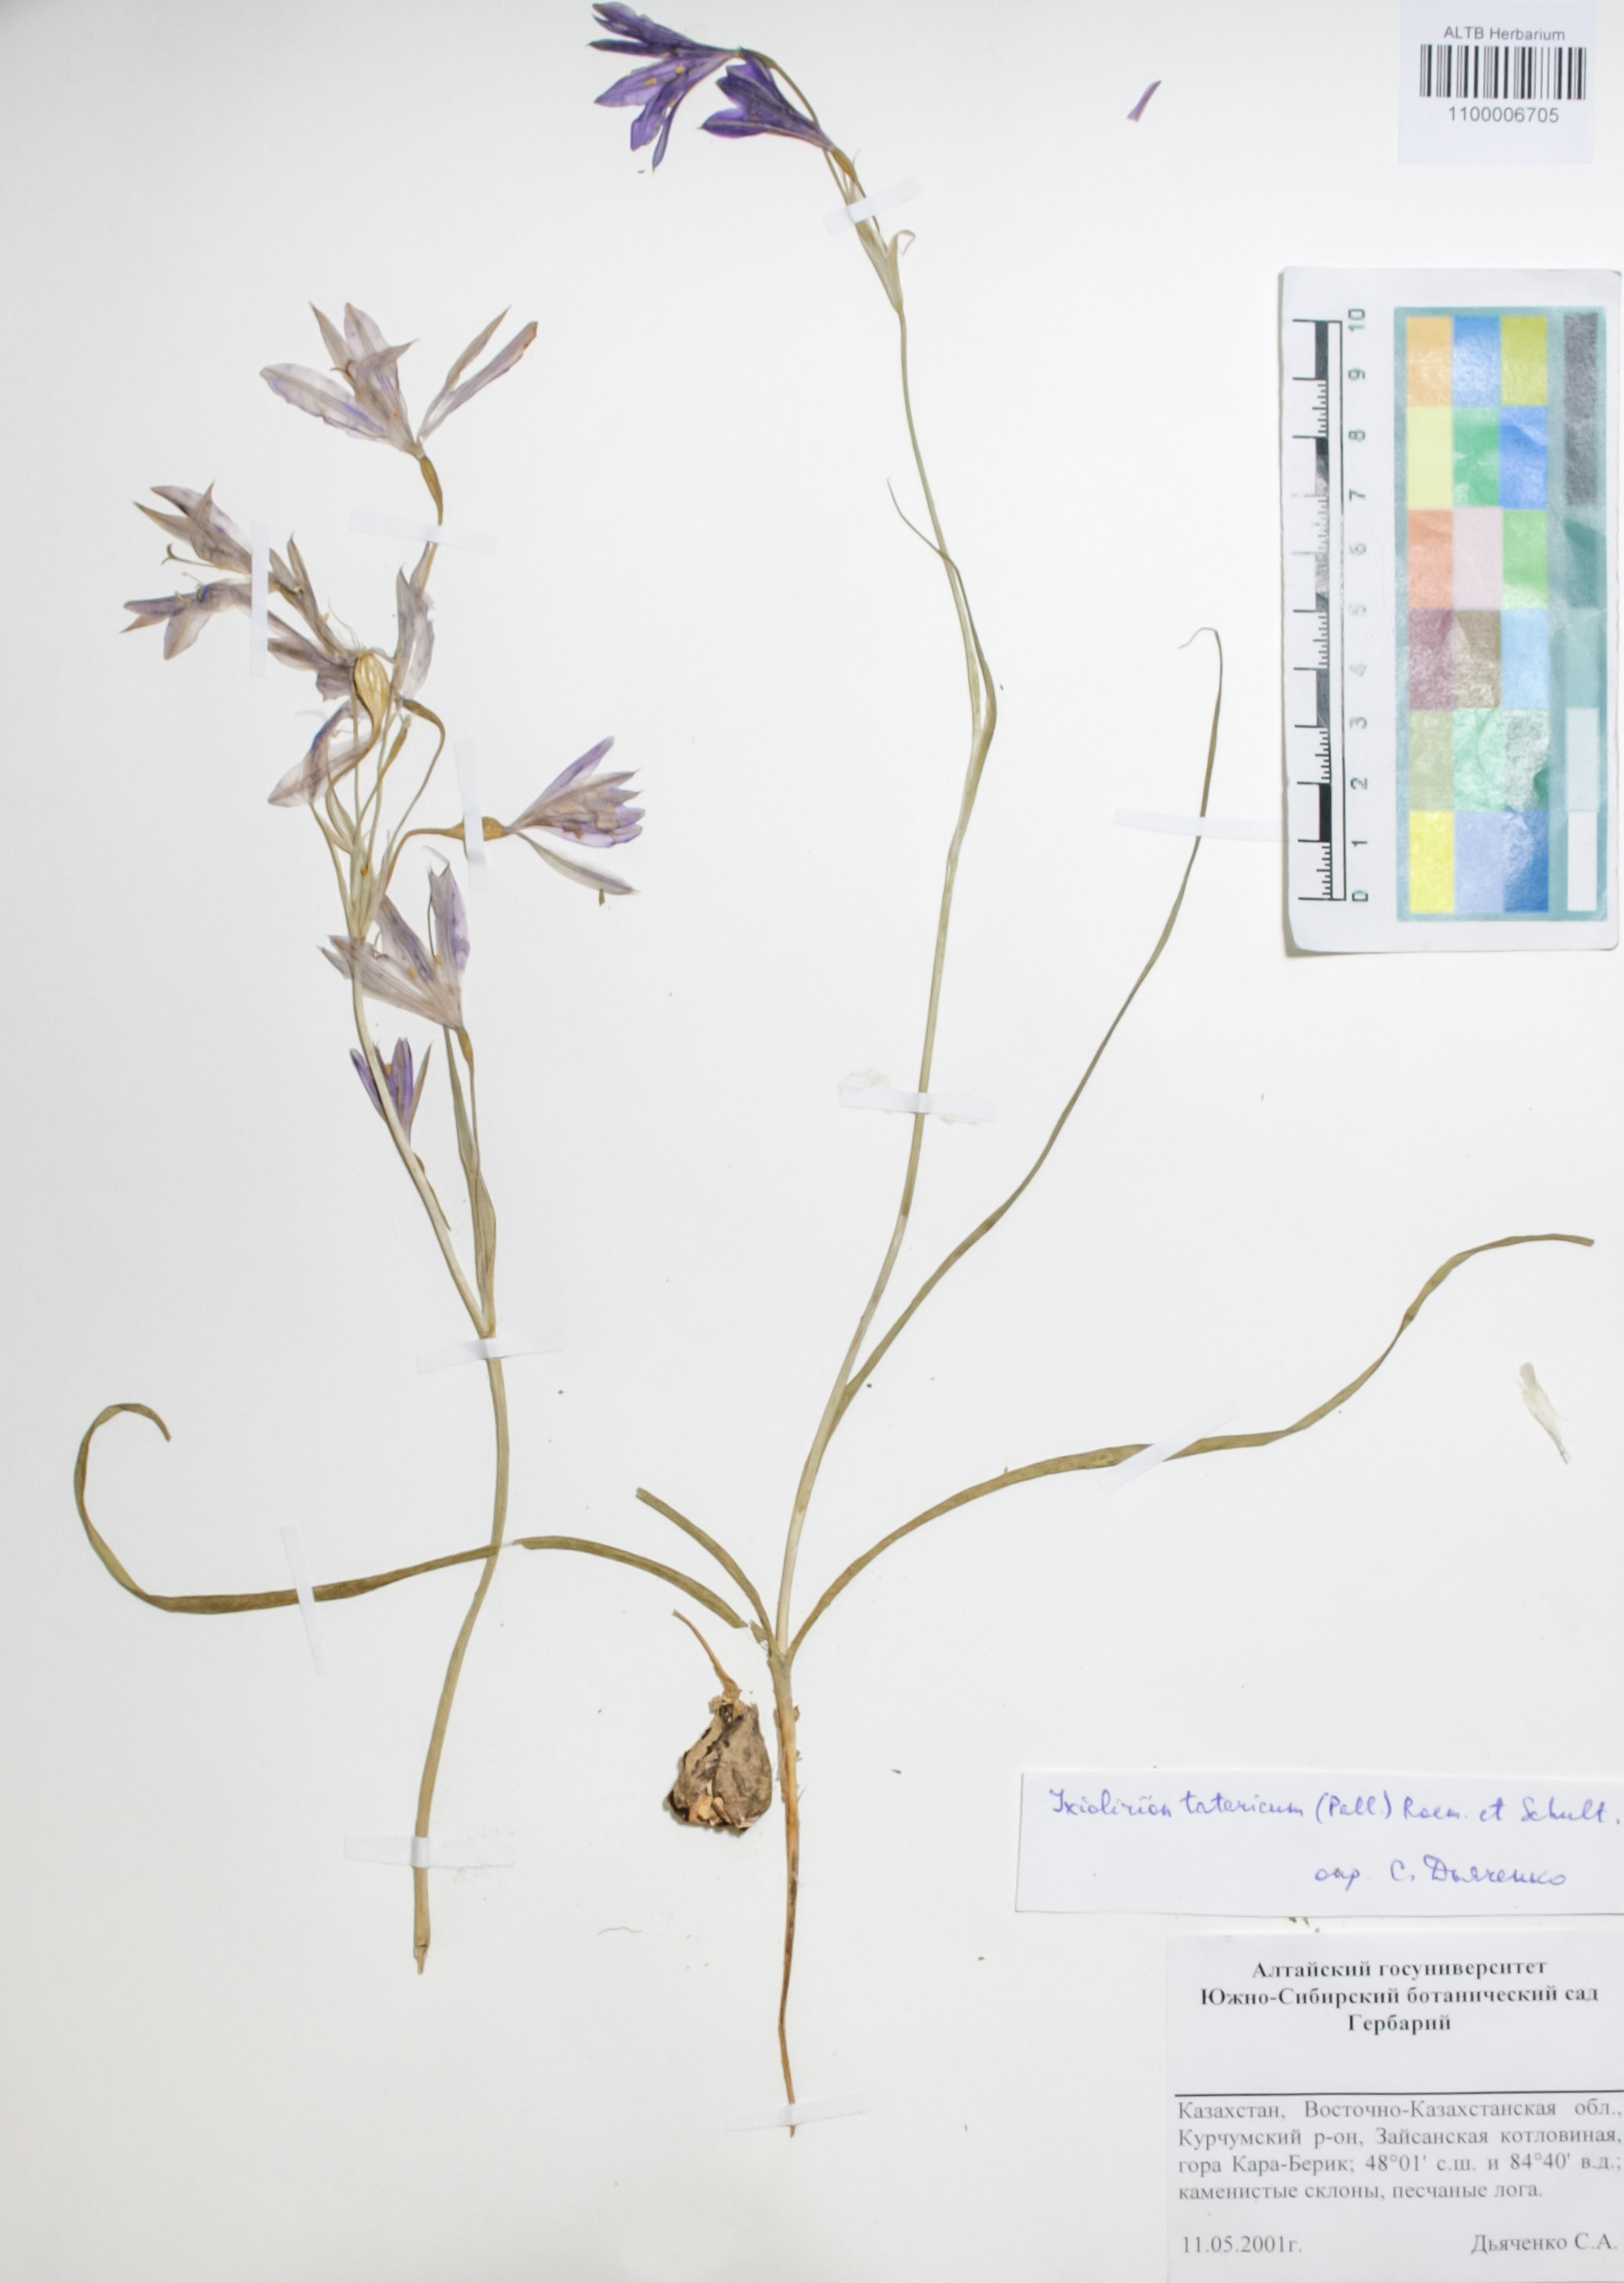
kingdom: Plantae
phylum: Tracheophyta
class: Liliopsida
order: Asparagales
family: Ixioliriaceae
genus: Ixiolirion
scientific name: Ixiolirion tataricum
